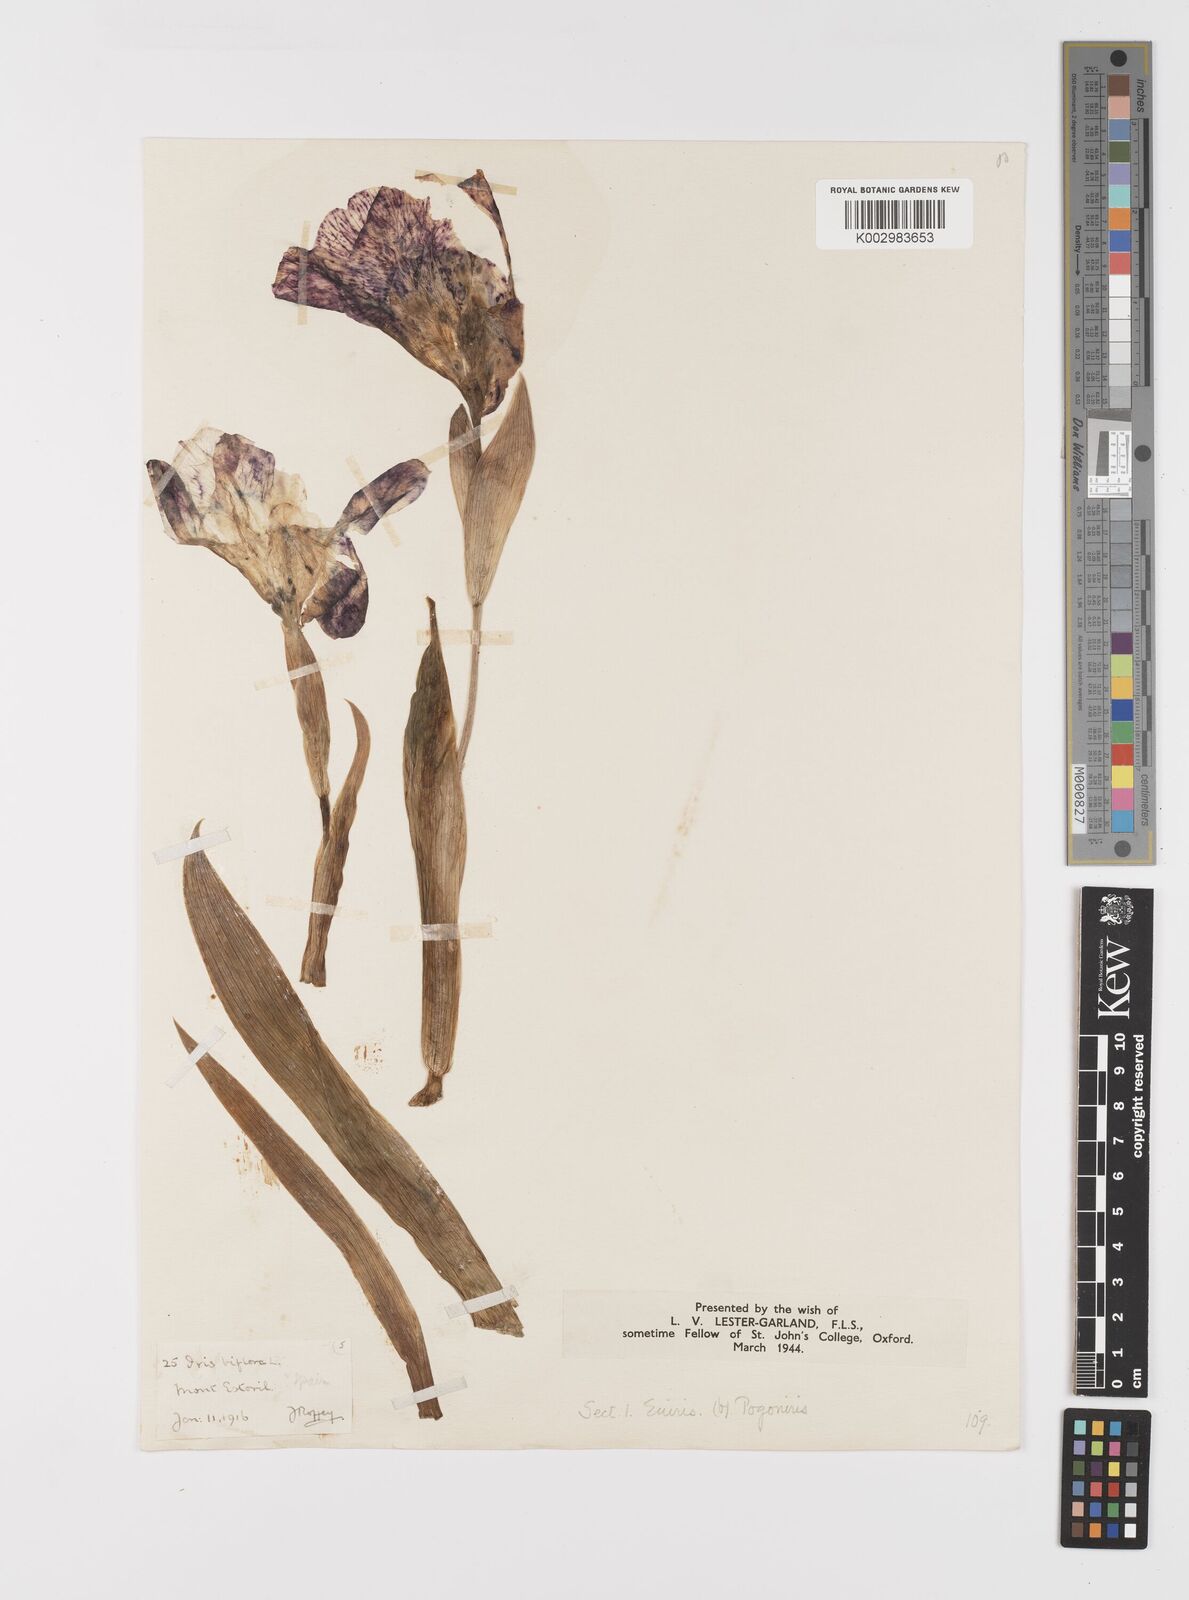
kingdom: Plantae
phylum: Tracheophyta
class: Liliopsida
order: Asparagales
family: Iridaceae
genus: Iris
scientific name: Iris lutescens
